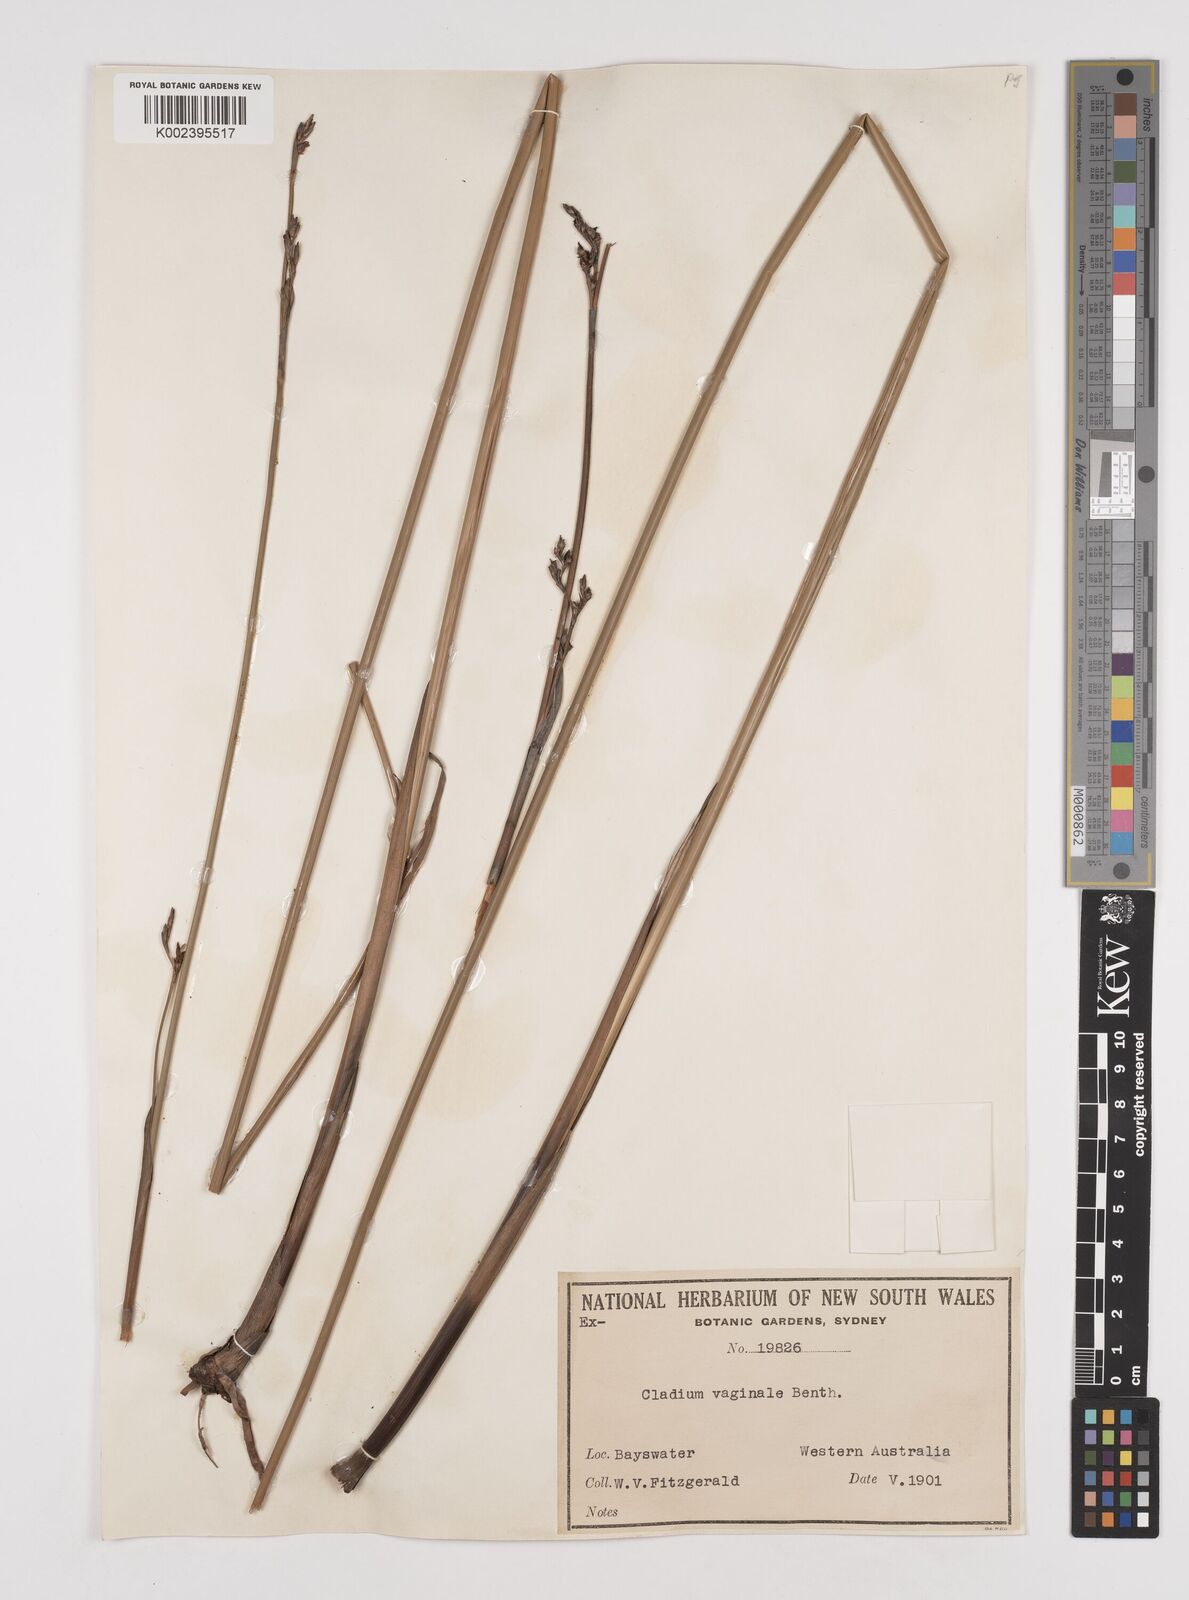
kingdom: Plantae
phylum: Tracheophyta
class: Liliopsida
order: Poales
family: Cyperaceae
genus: Machaerina
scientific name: Machaerina vaginalis
